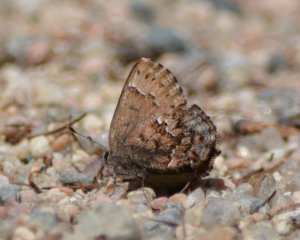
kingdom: Animalia
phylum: Arthropoda
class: Insecta
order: Lepidoptera
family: Lycaenidae
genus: Incisalia
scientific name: Incisalia lanoraieensis
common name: Bog Elfin
